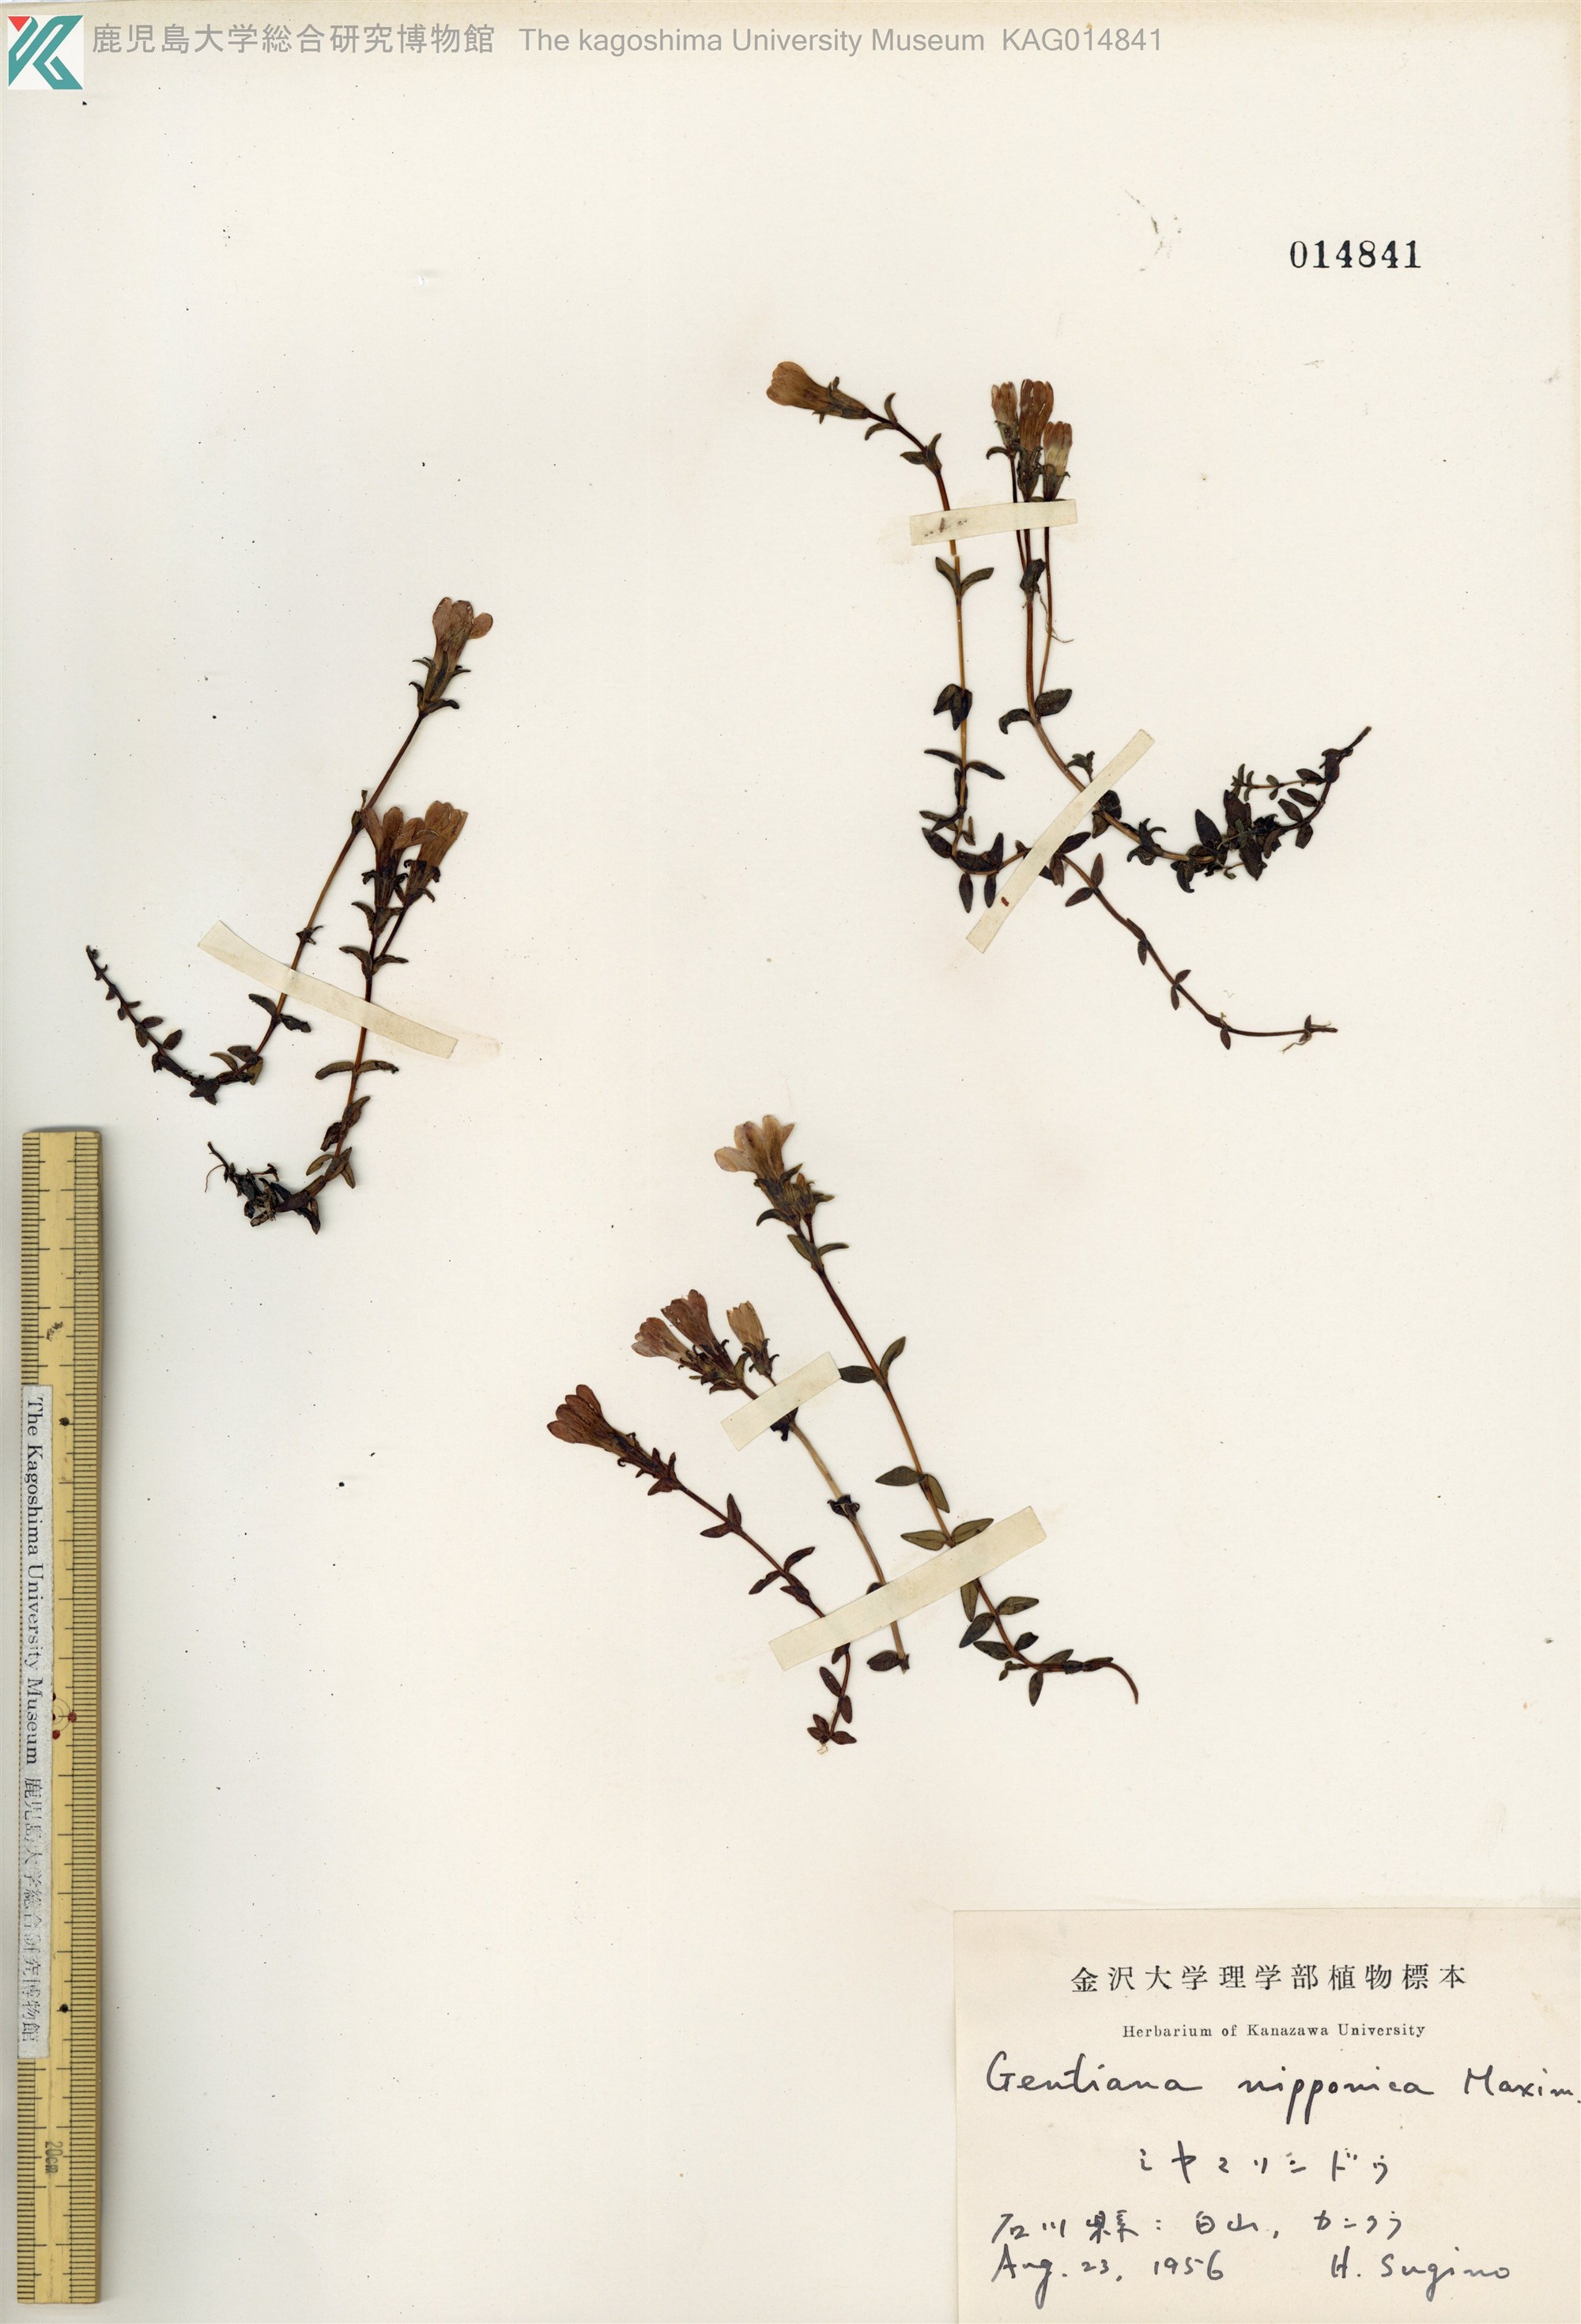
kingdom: Plantae
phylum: Tracheophyta
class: Magnoliopsida
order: Gentianales
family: Gentianaceae
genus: Gentiana
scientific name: Gentiana nipponica
